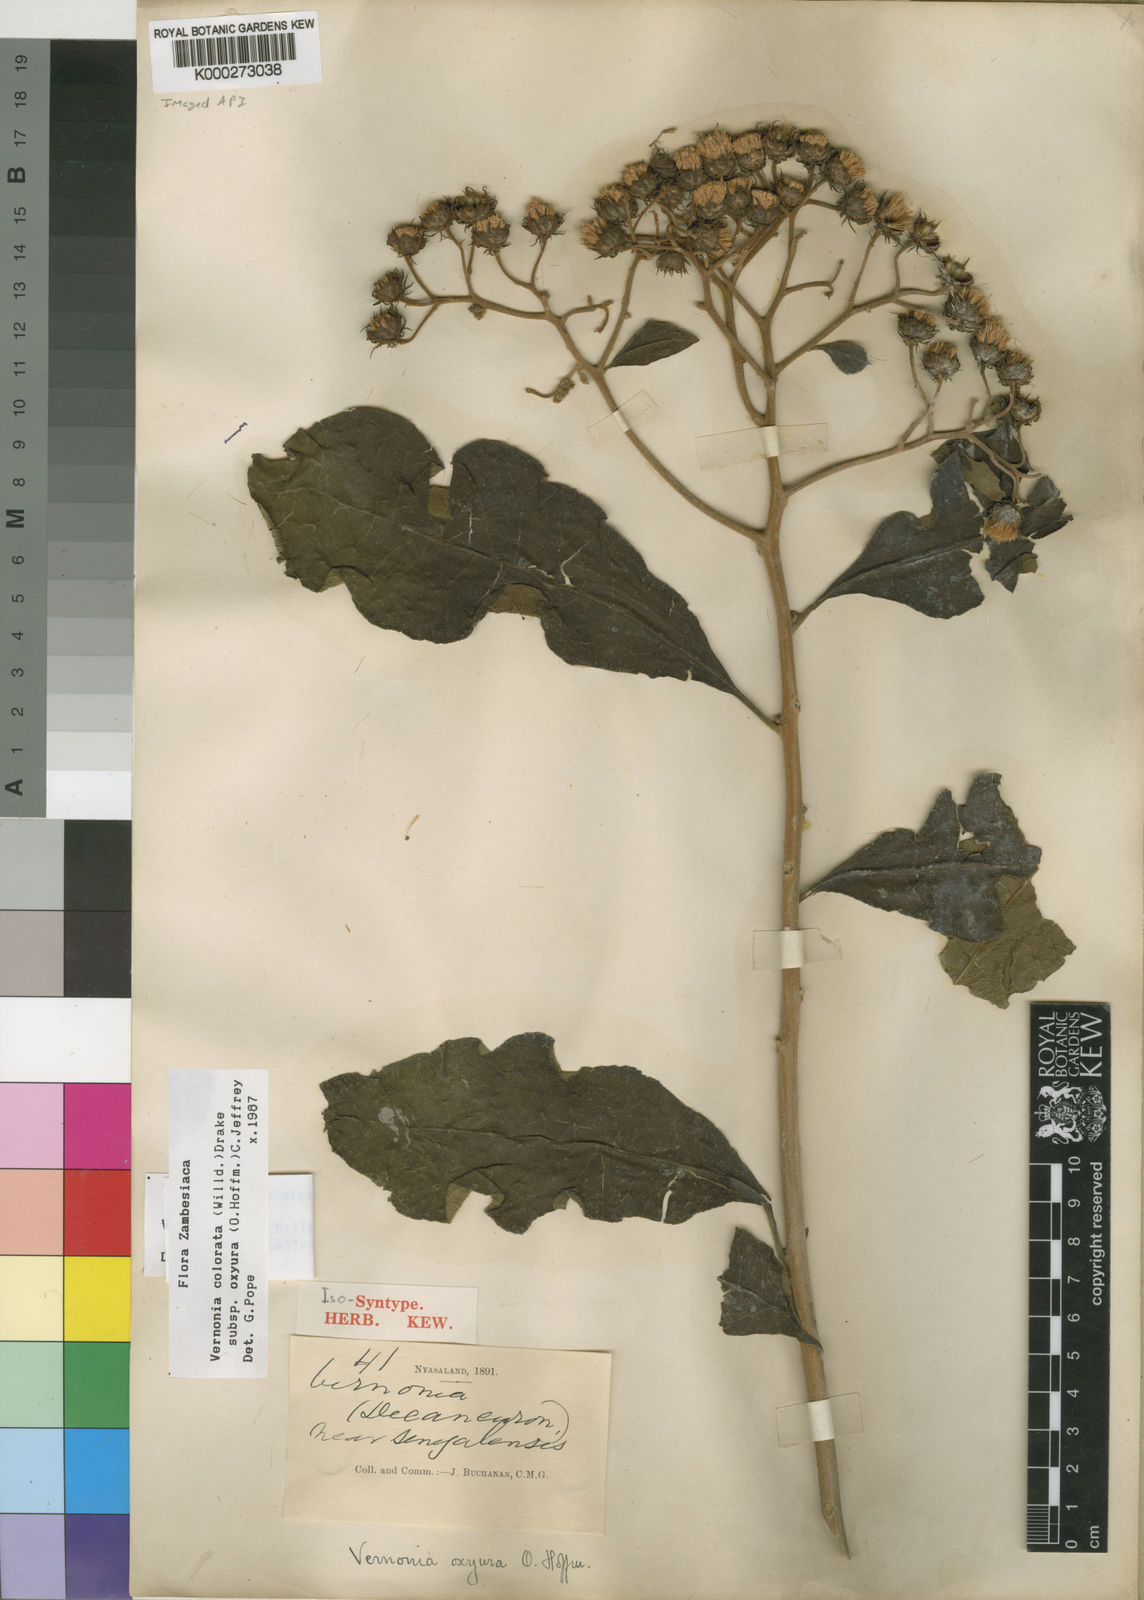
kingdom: Plantae
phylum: Tracheophyta
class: Magnoliopsida
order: Asterales
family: Asteraceae
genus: Vernonia
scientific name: Vernonia colorata
